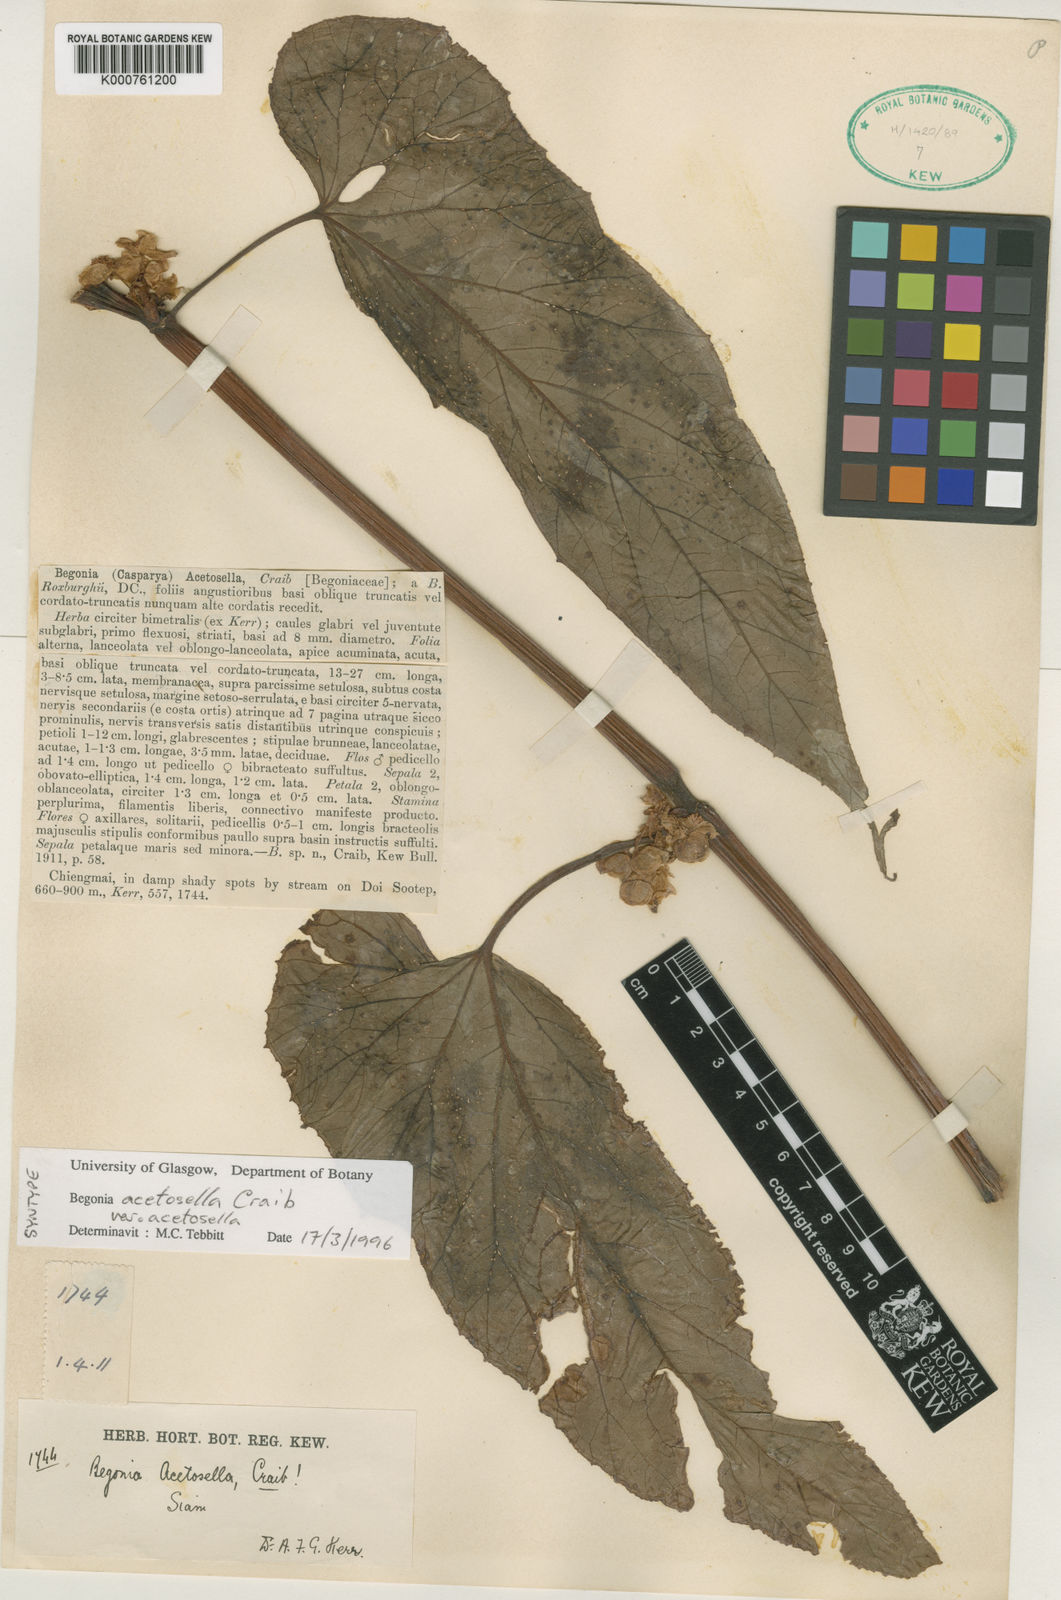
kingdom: Plantae
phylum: Tracheophyta
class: Magnoliopsida
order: Cucurbitales
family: Begoniaceae
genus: Begonia
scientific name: Begonia acetosella
